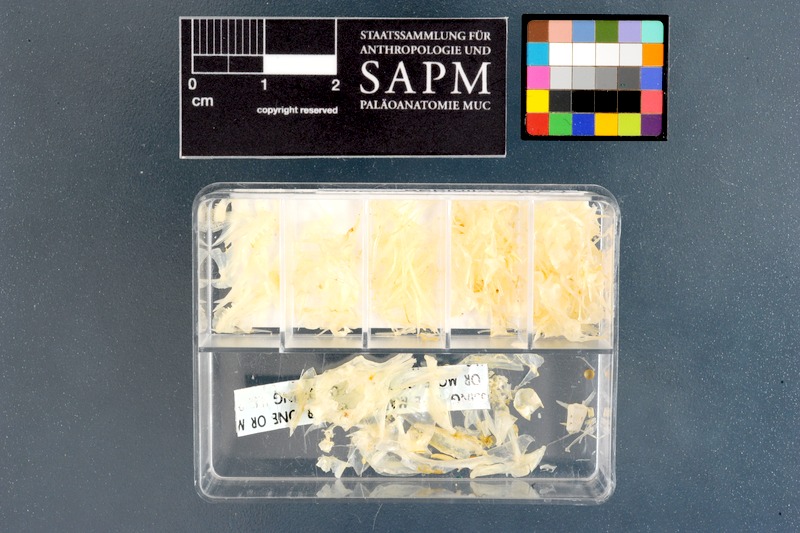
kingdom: Animalia
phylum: Chordata
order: Perciformes
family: Clinidae
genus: Blennophis
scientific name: Blennophis striatus
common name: Striped klipfish
